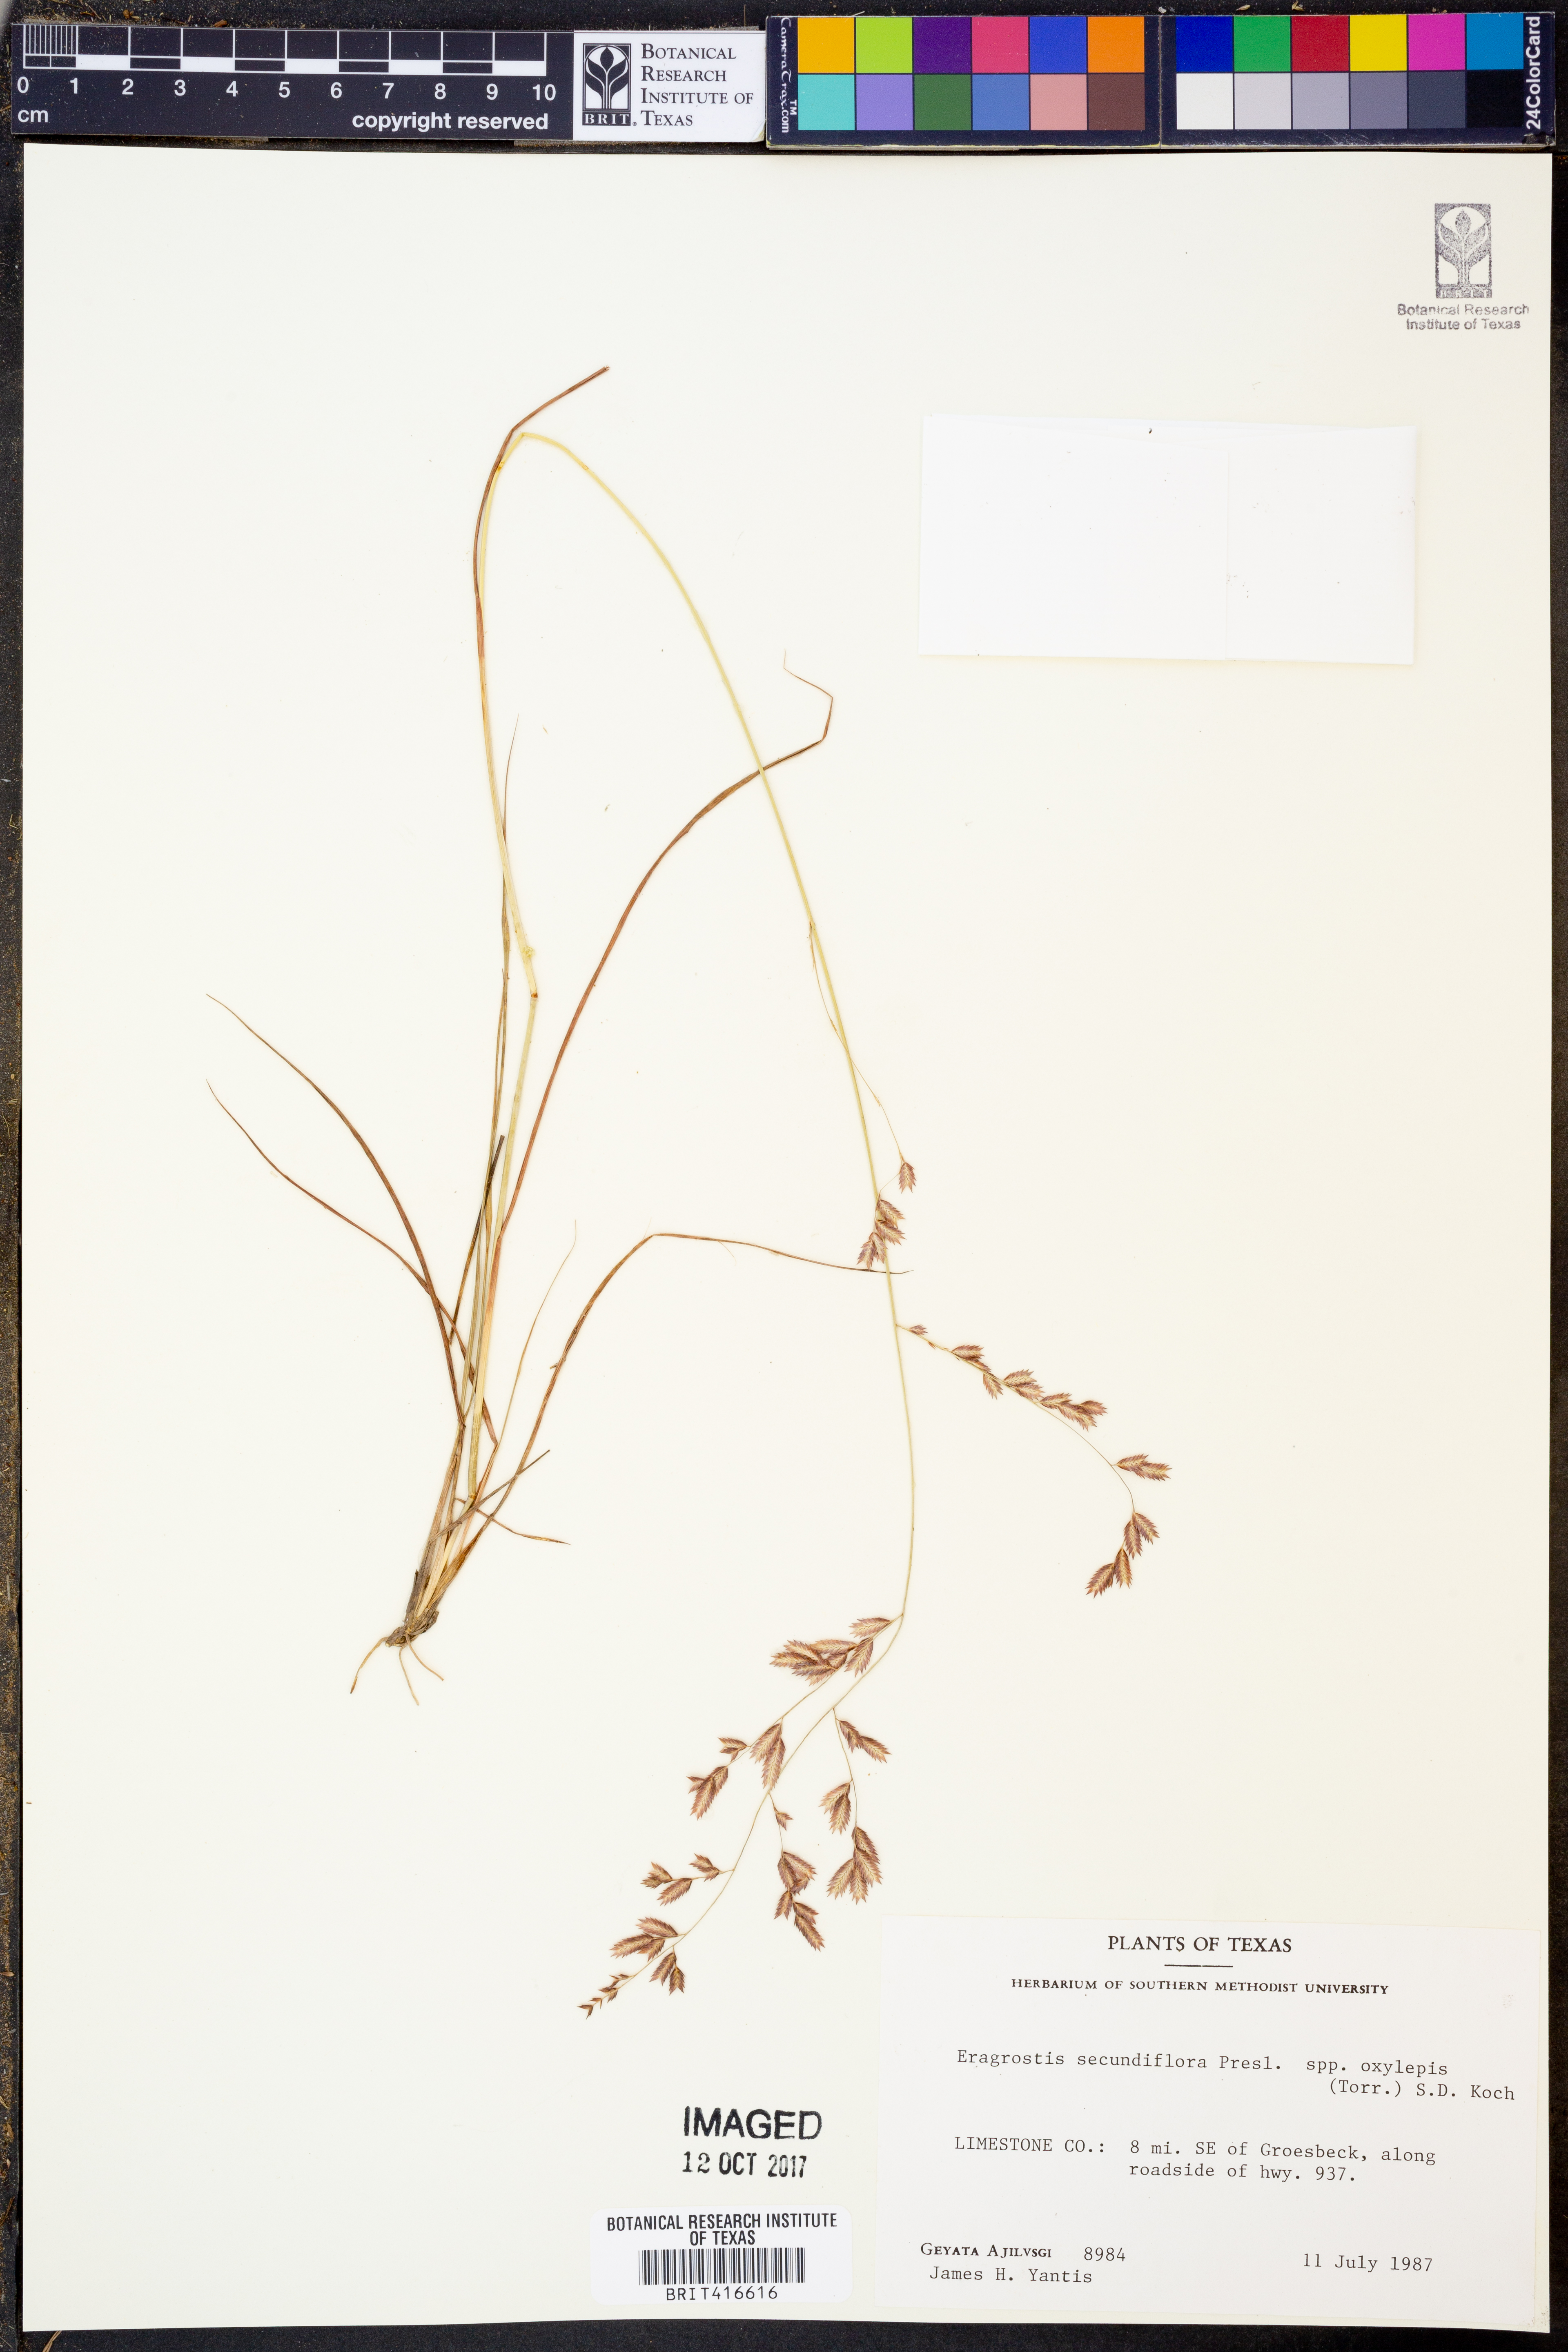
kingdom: Plantae
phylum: Tracheophyta
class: Liliopsida
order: Poales
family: Poaceae
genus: Eragrostis
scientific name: Eragrostis secundiflora
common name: Red love grass
